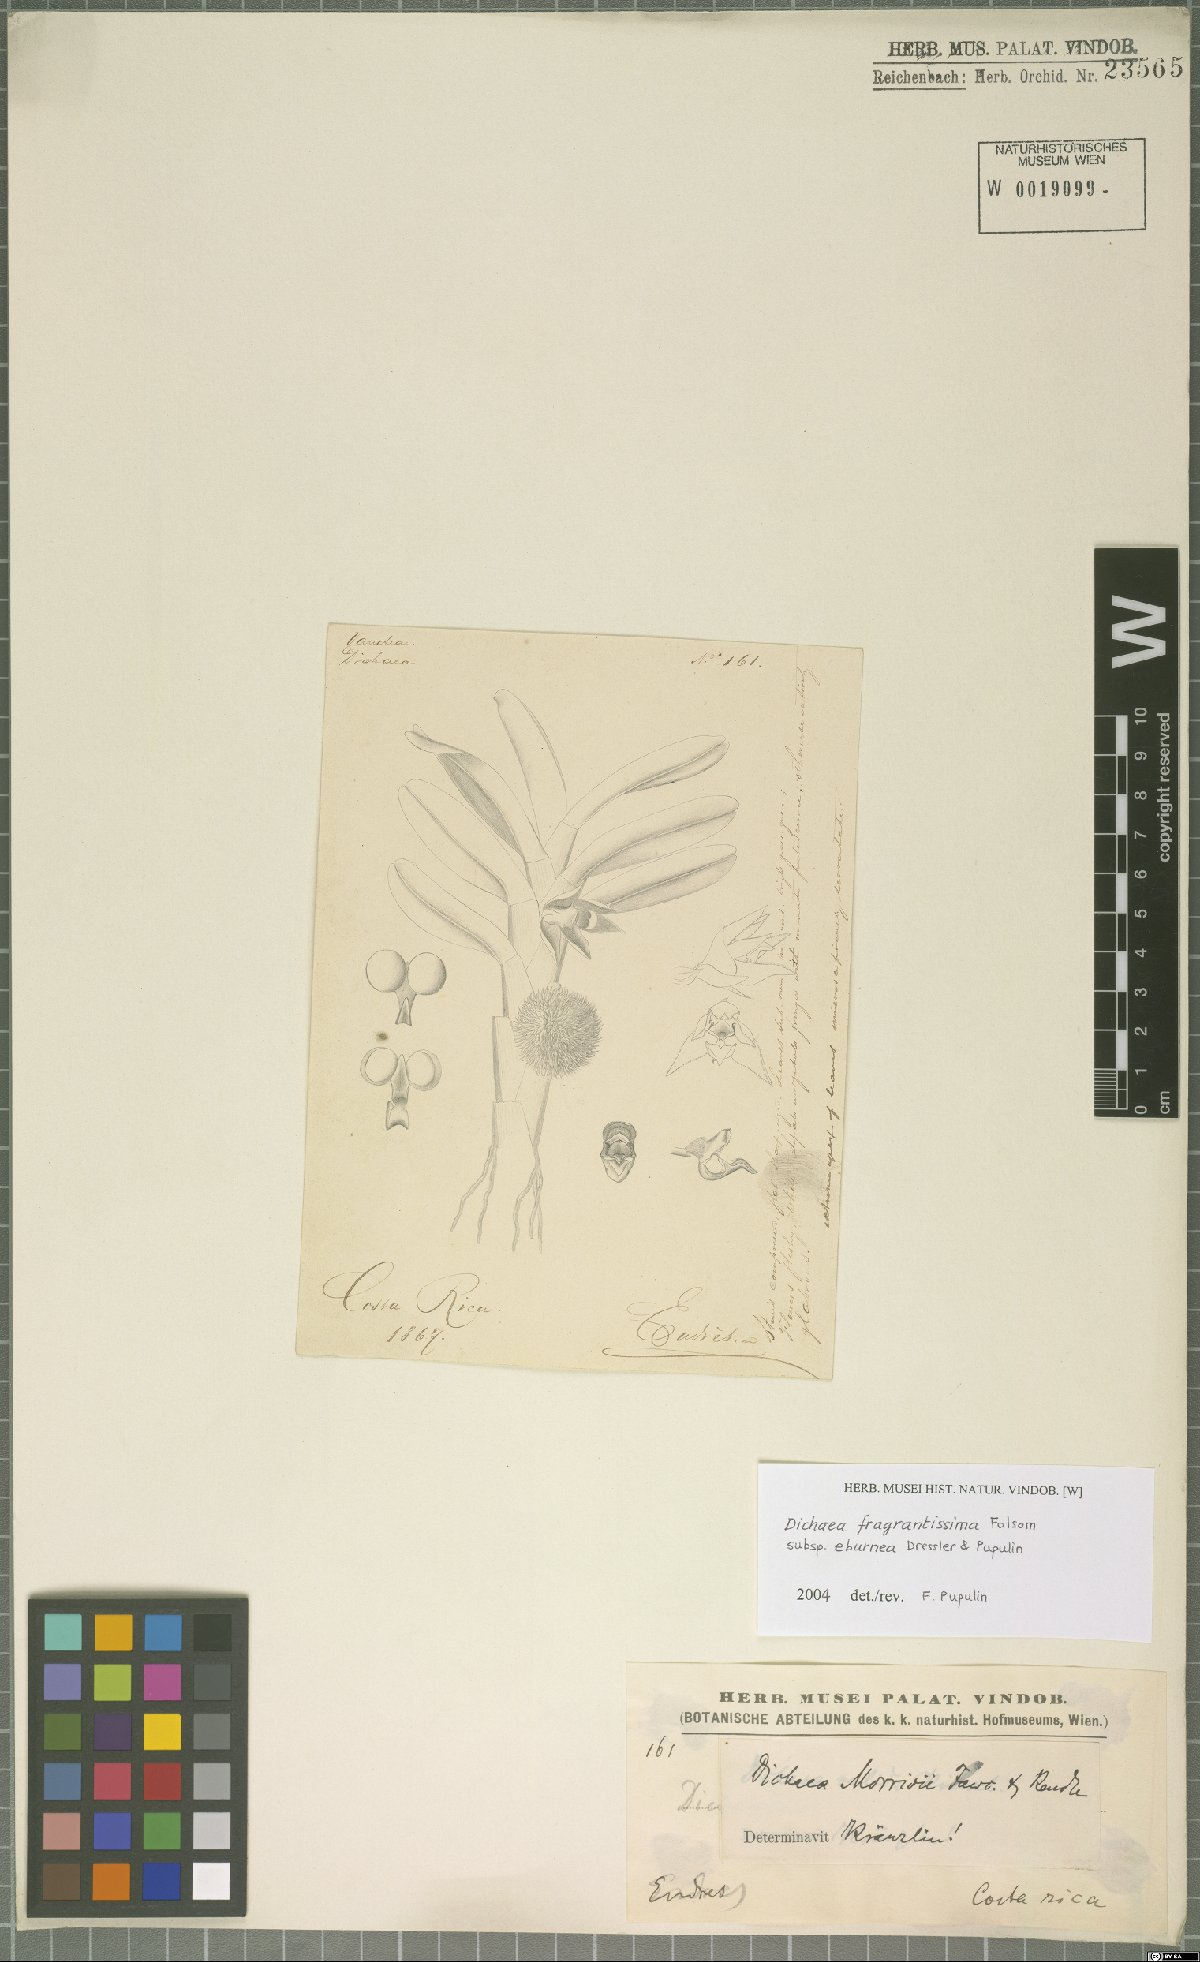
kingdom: Plantae
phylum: Tracheophyta
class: Liliopsida
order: Asparagales
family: Orchidaceae
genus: Dichaea
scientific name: Dichaea eburnea
